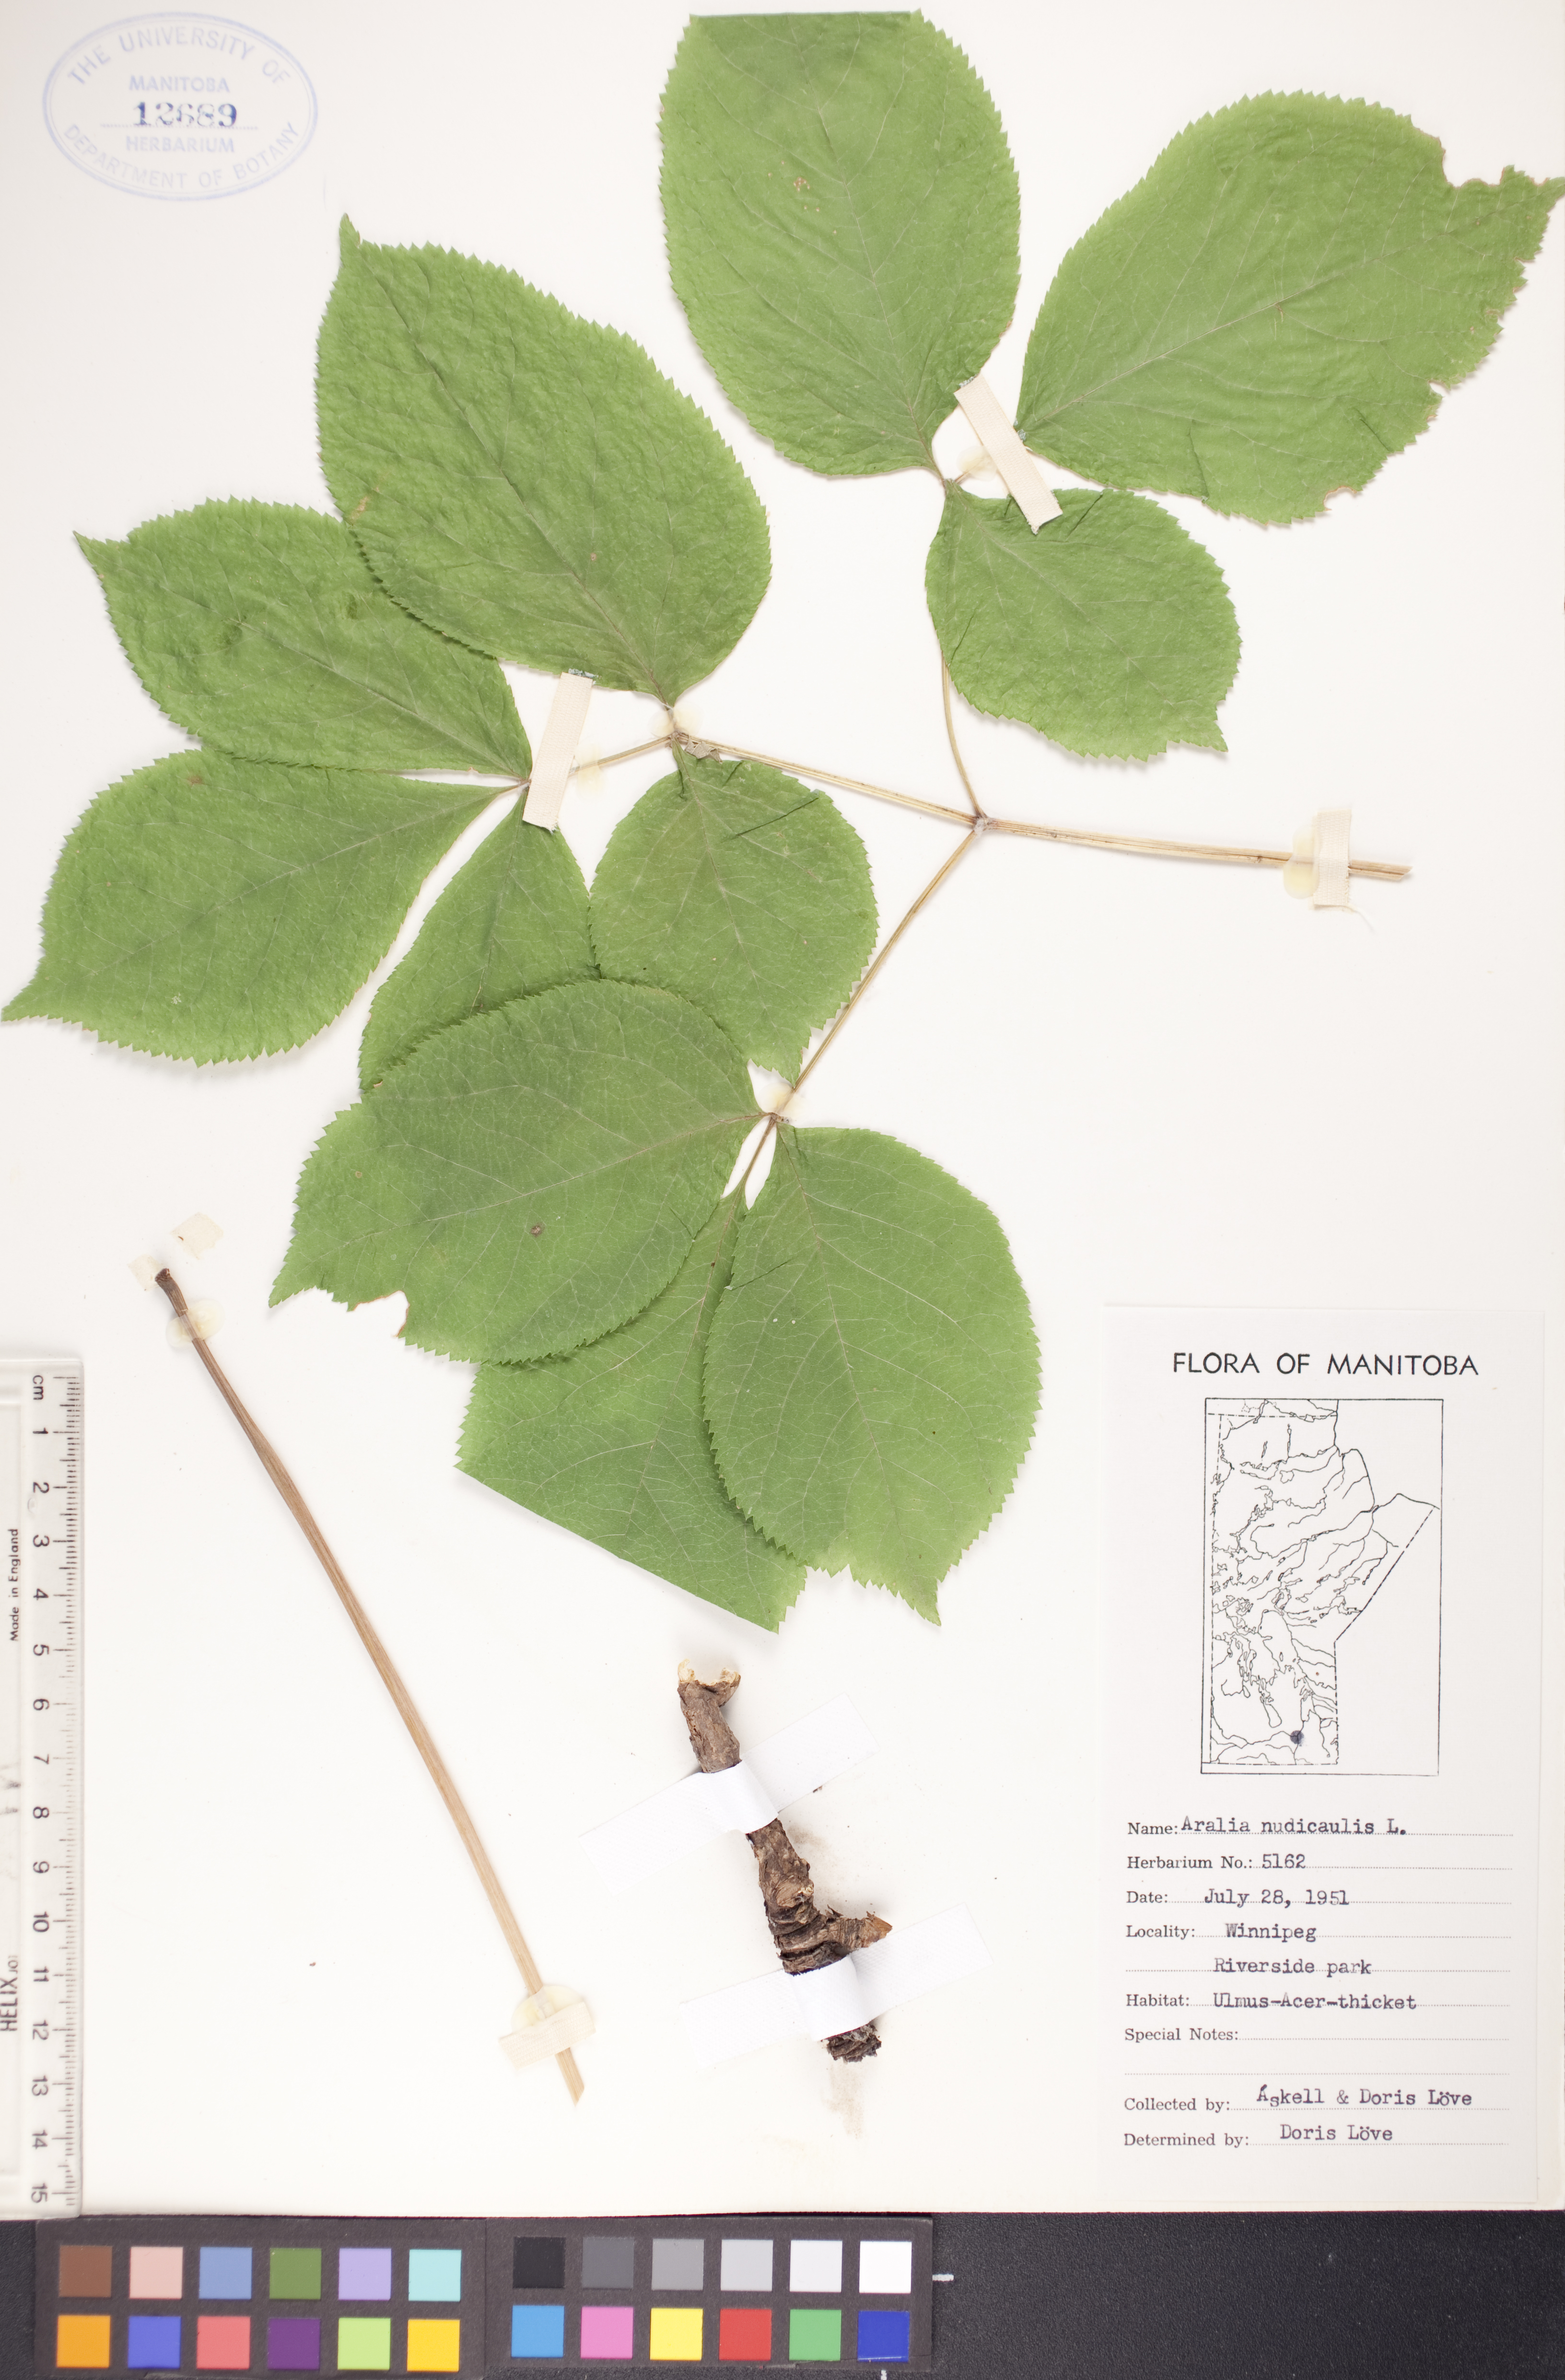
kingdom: Plantae
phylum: Tracheophyta
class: Magnoliopsida
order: Apiales
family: Araliaceae
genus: Aralia
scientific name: Aralia nudicaulis
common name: Wild sarsaparilla
